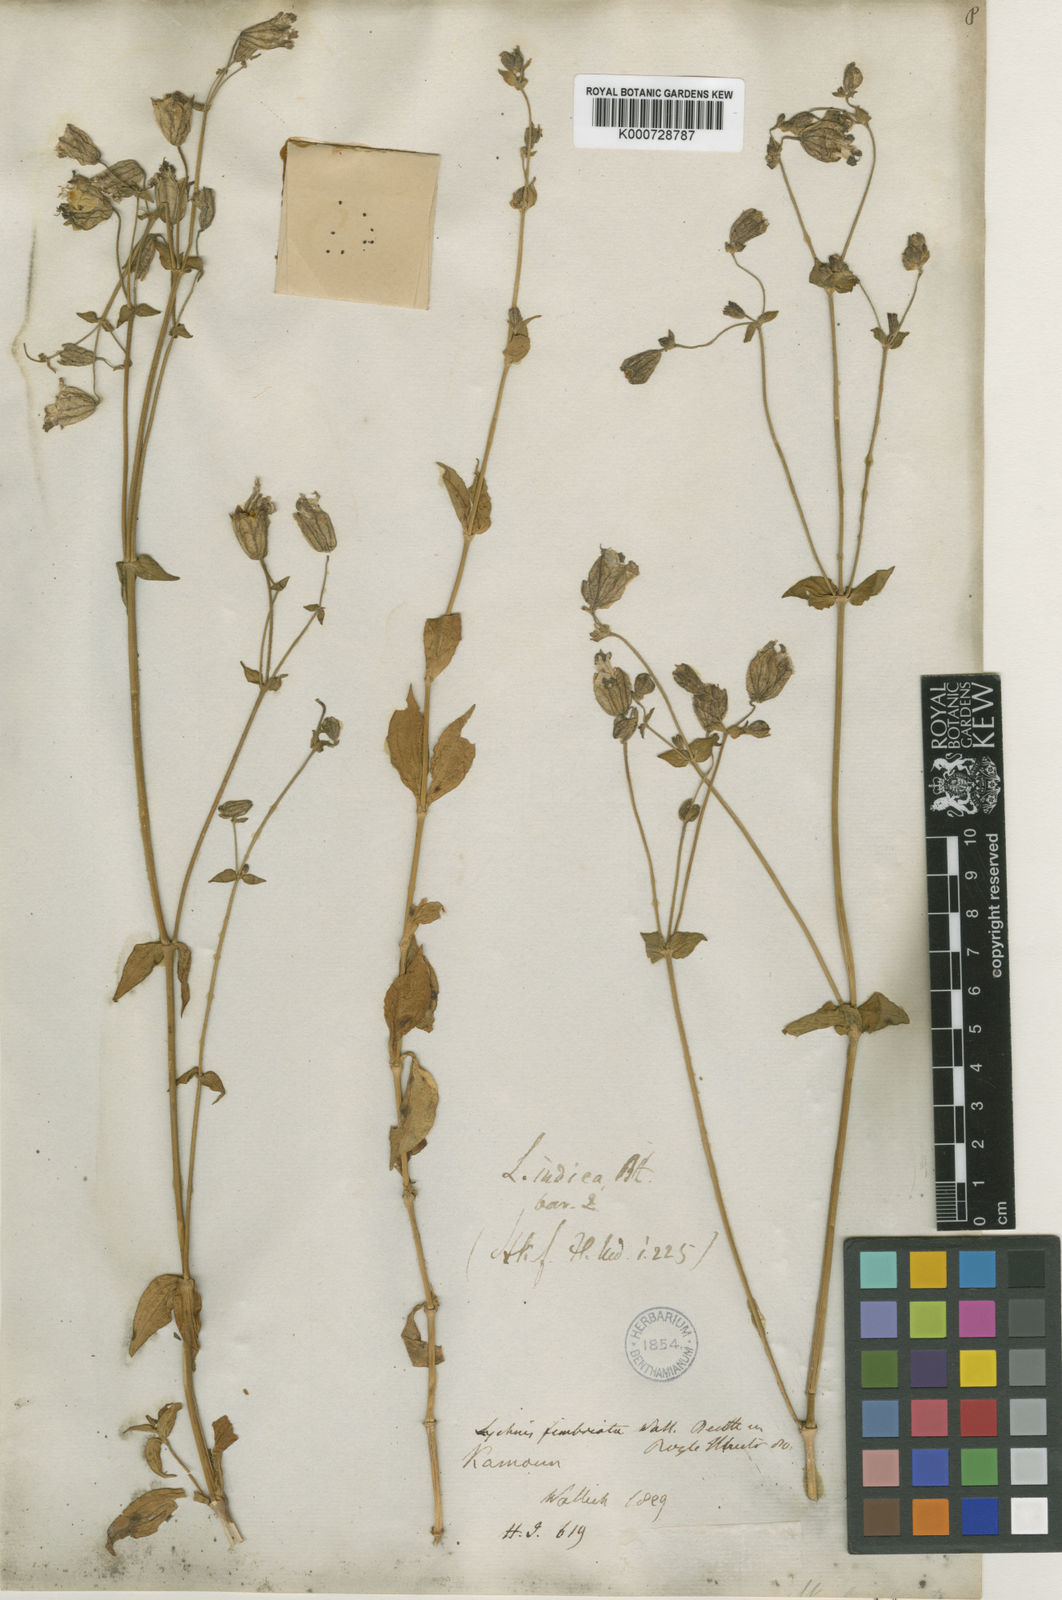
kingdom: Plantae
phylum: Tracheophyta
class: Magnoliopsida
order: Caryophyllales
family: Caryophyllaceae
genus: Silene
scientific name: Silene edgeworthii
